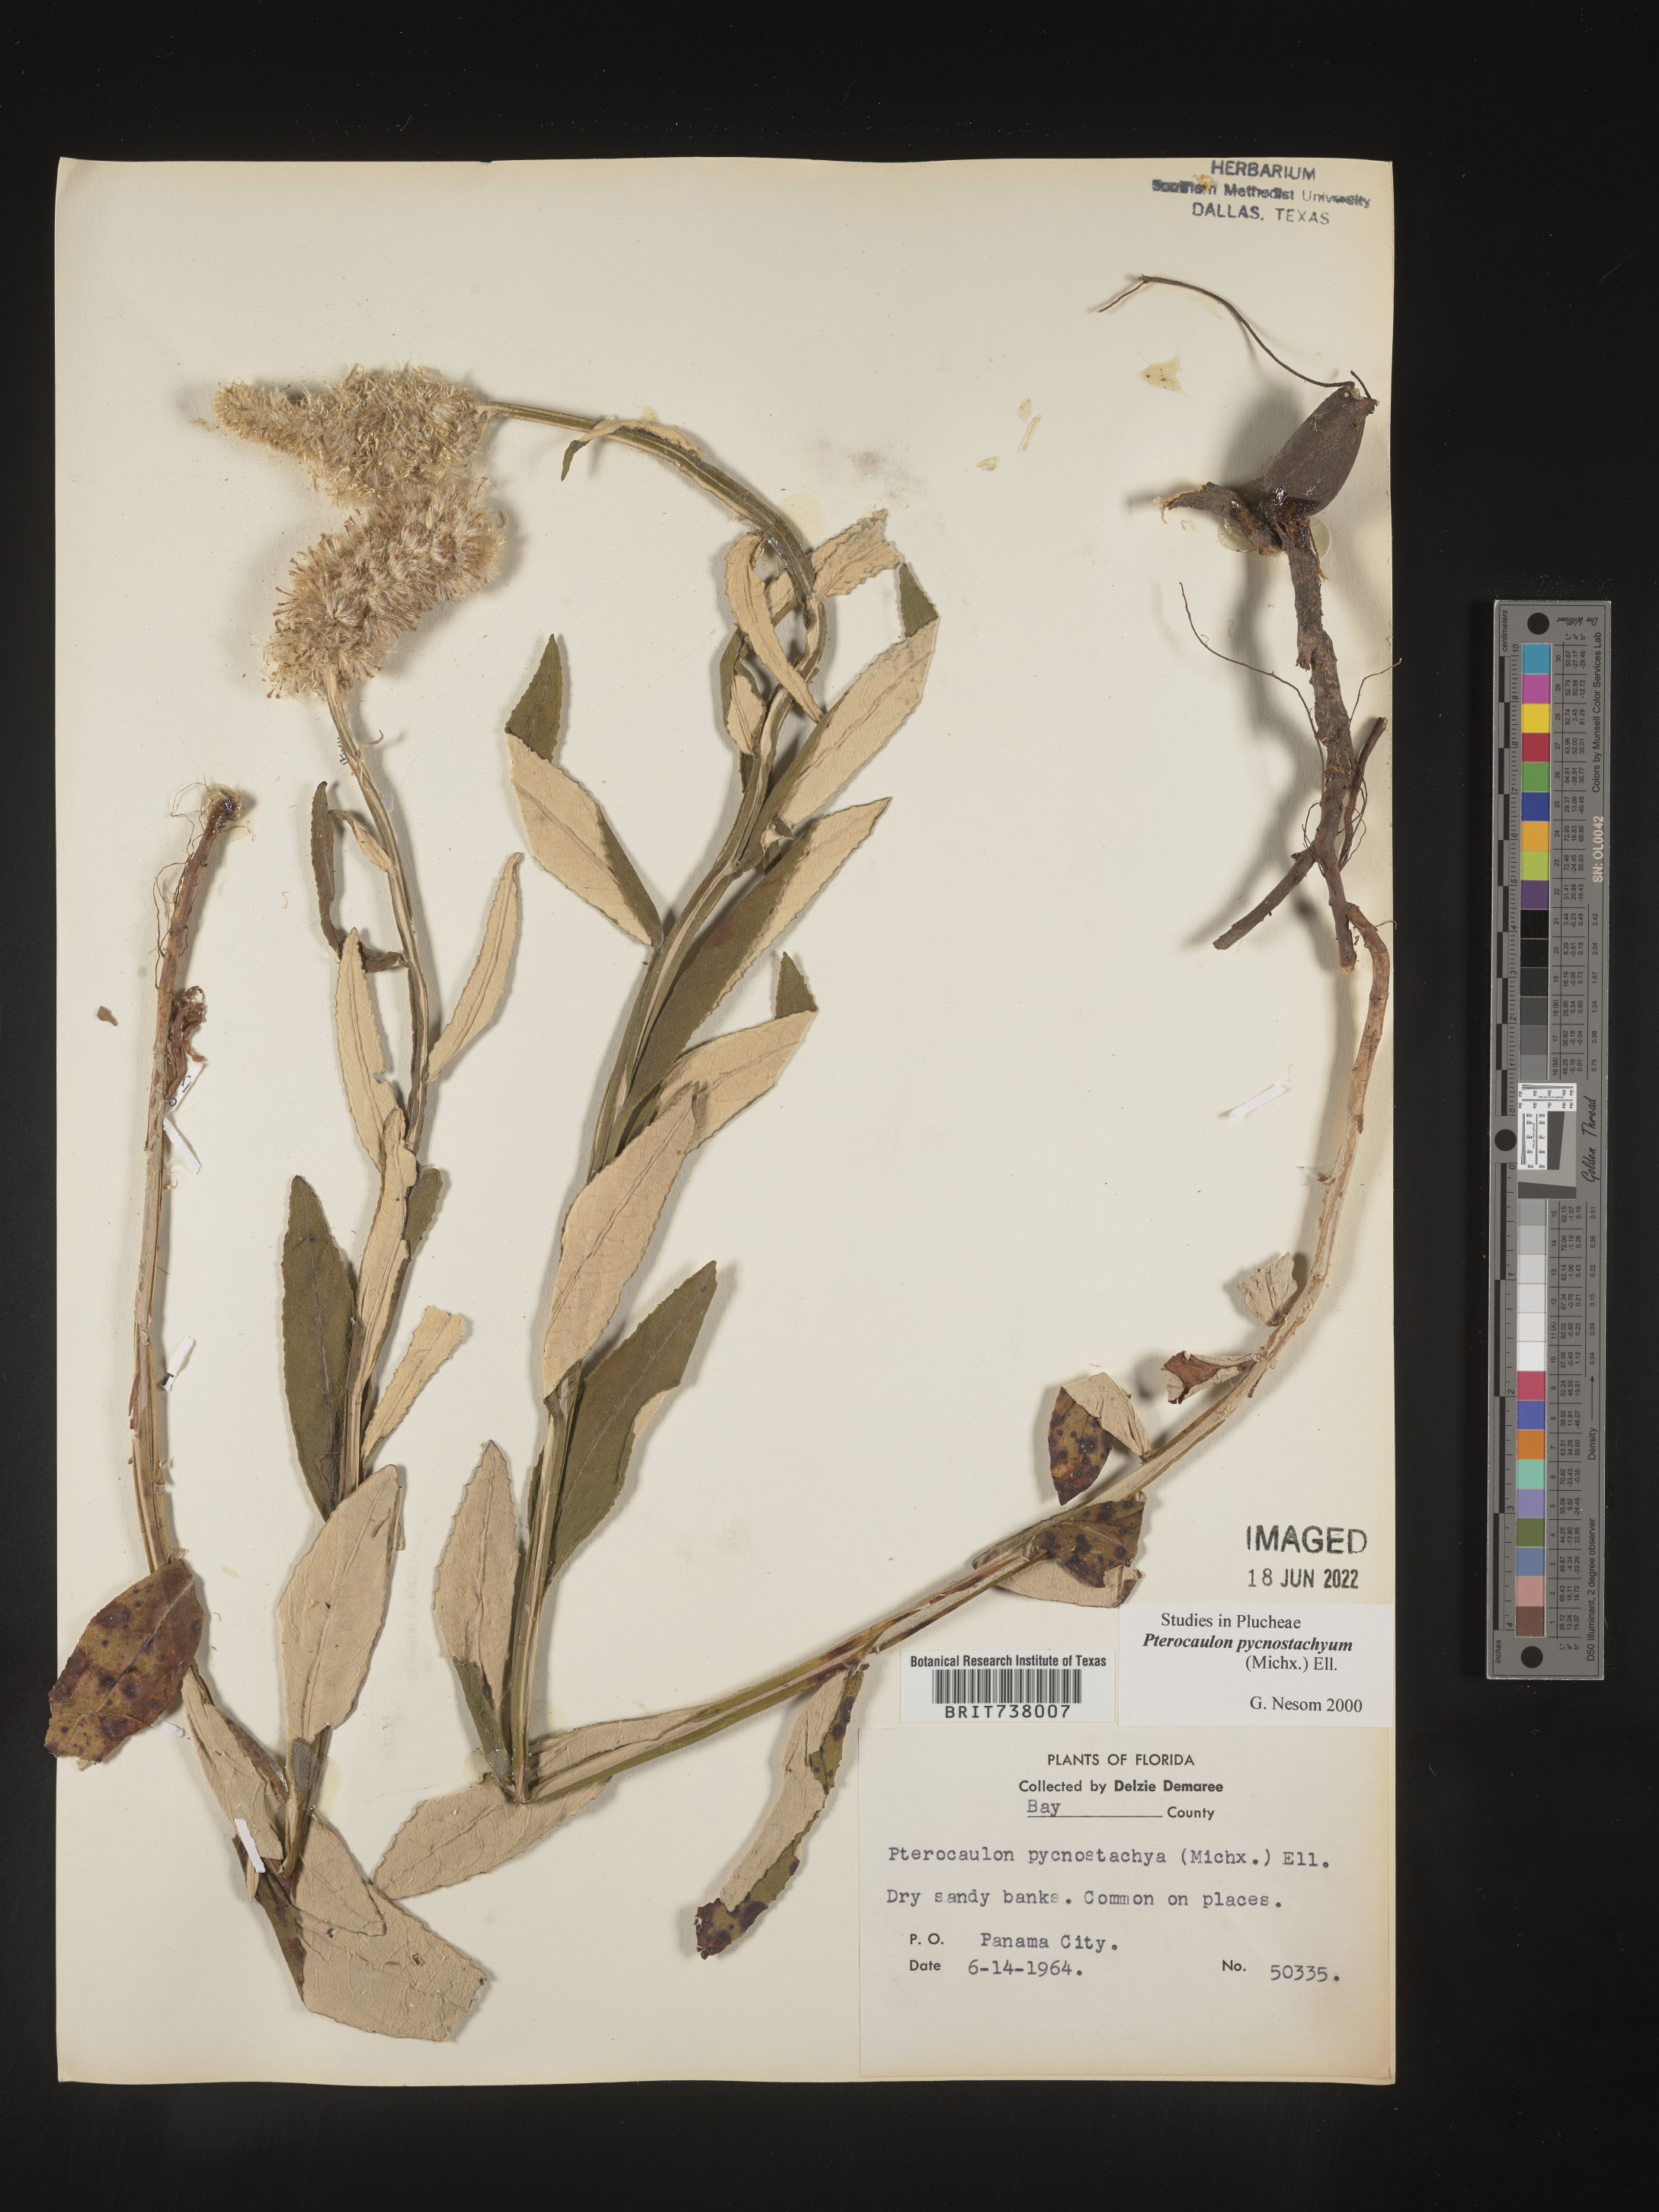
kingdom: Plantae
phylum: Tracheophyta
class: Magnoliopsida
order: Asterales
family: Asteraceae
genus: Pterocaulon
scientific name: Pterocaulon pycnostachyum
